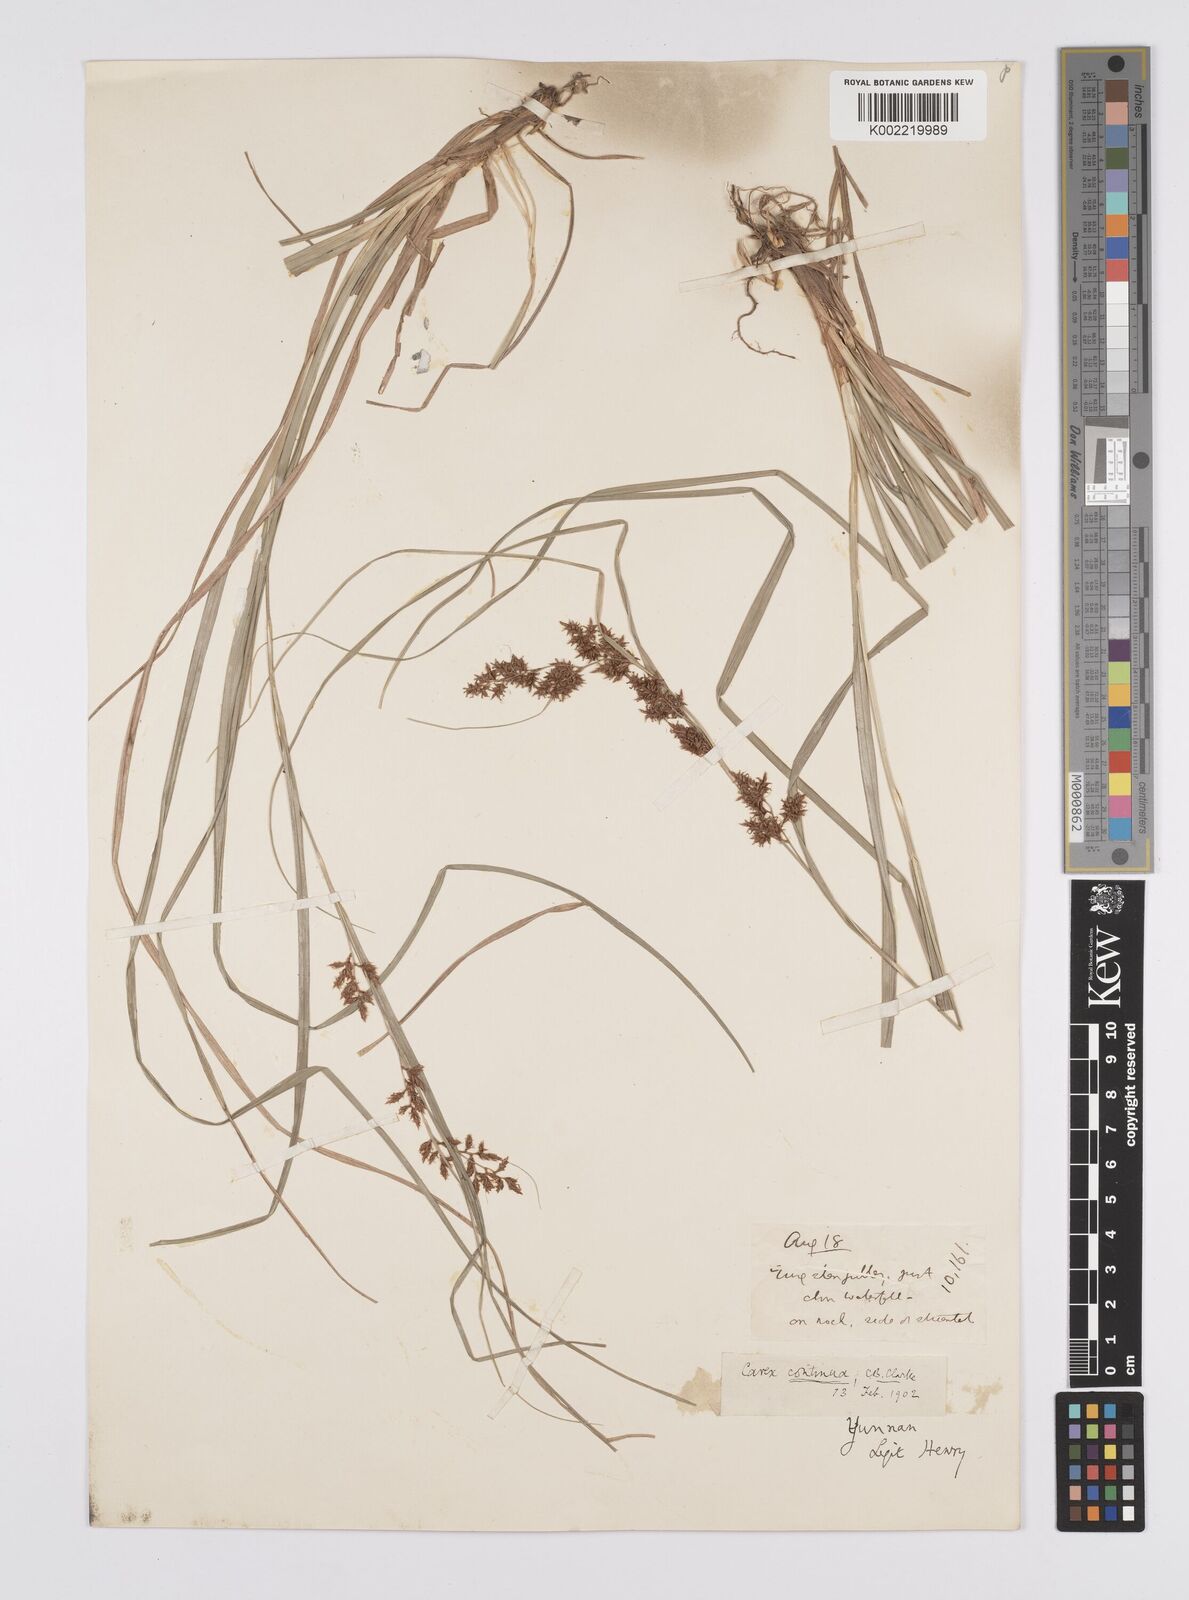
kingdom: Plantae
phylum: Tracheophyta
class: Liliopsida
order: Poales
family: Cyperaceae
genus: Carex
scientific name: Carex continua
